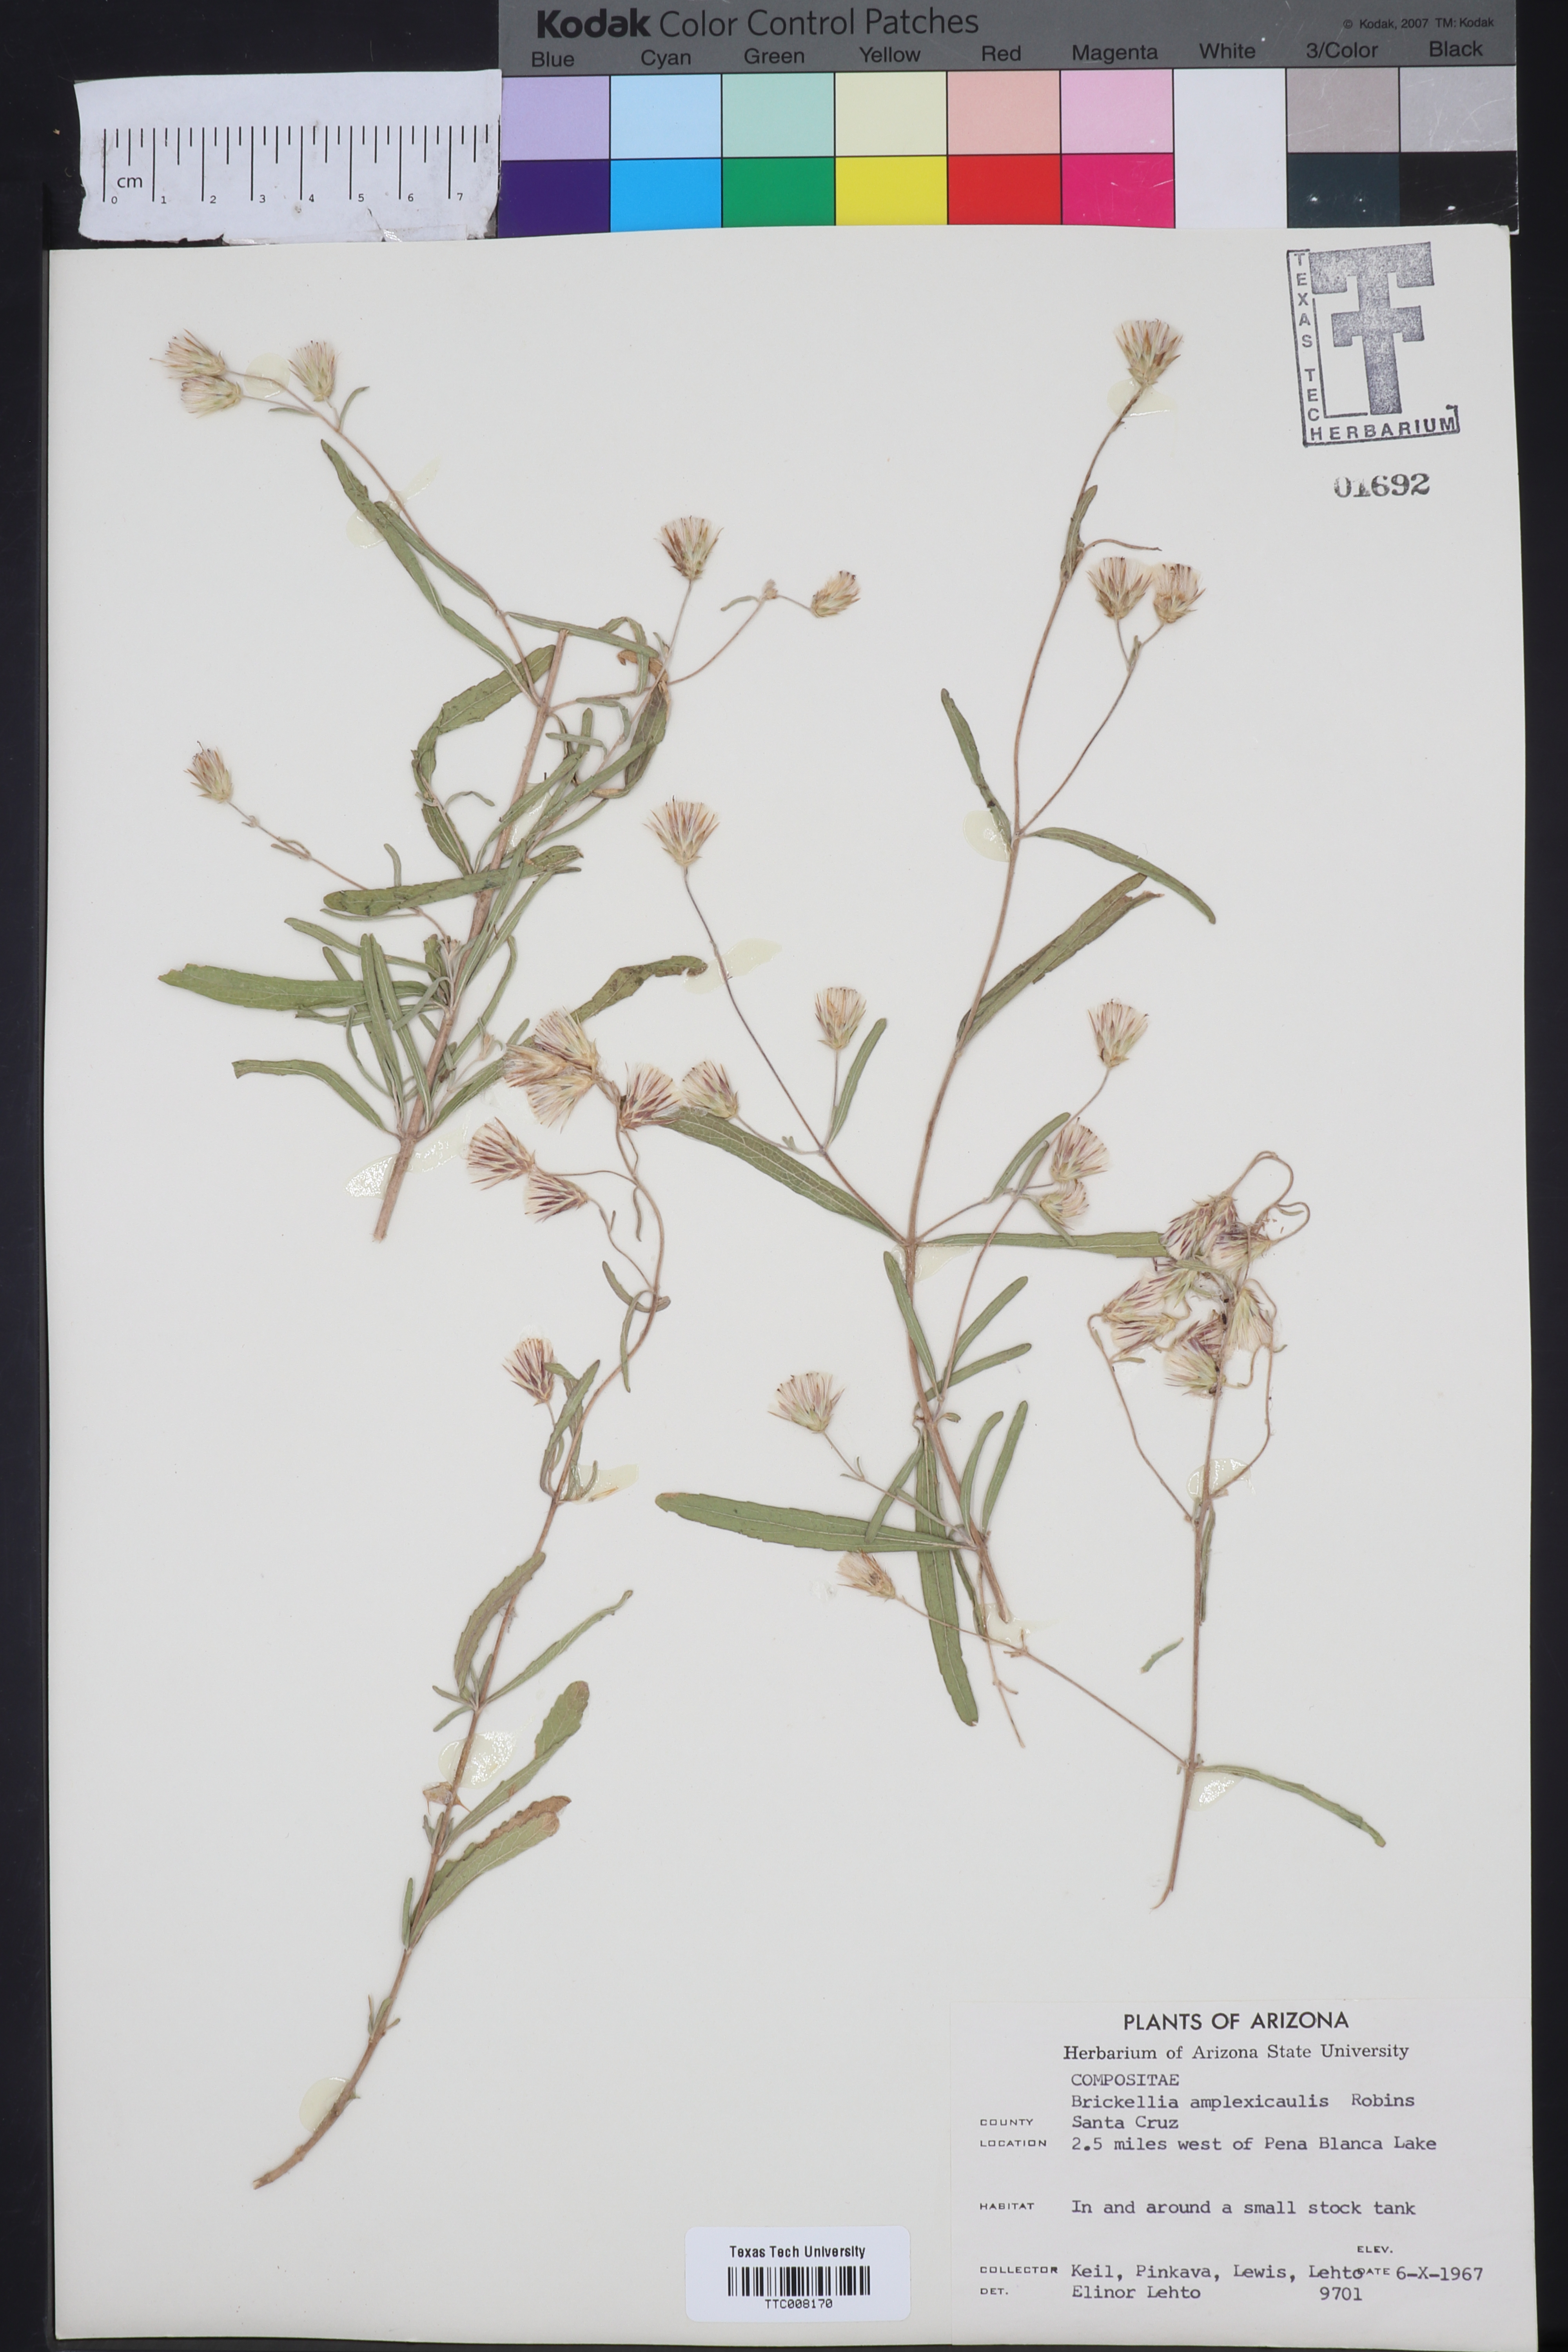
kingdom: Plantae
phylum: Tracheophyta
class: Magnoliopsida
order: Asterales
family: Asteraceae
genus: Brickellia
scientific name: Brickellia amplexicaulis
